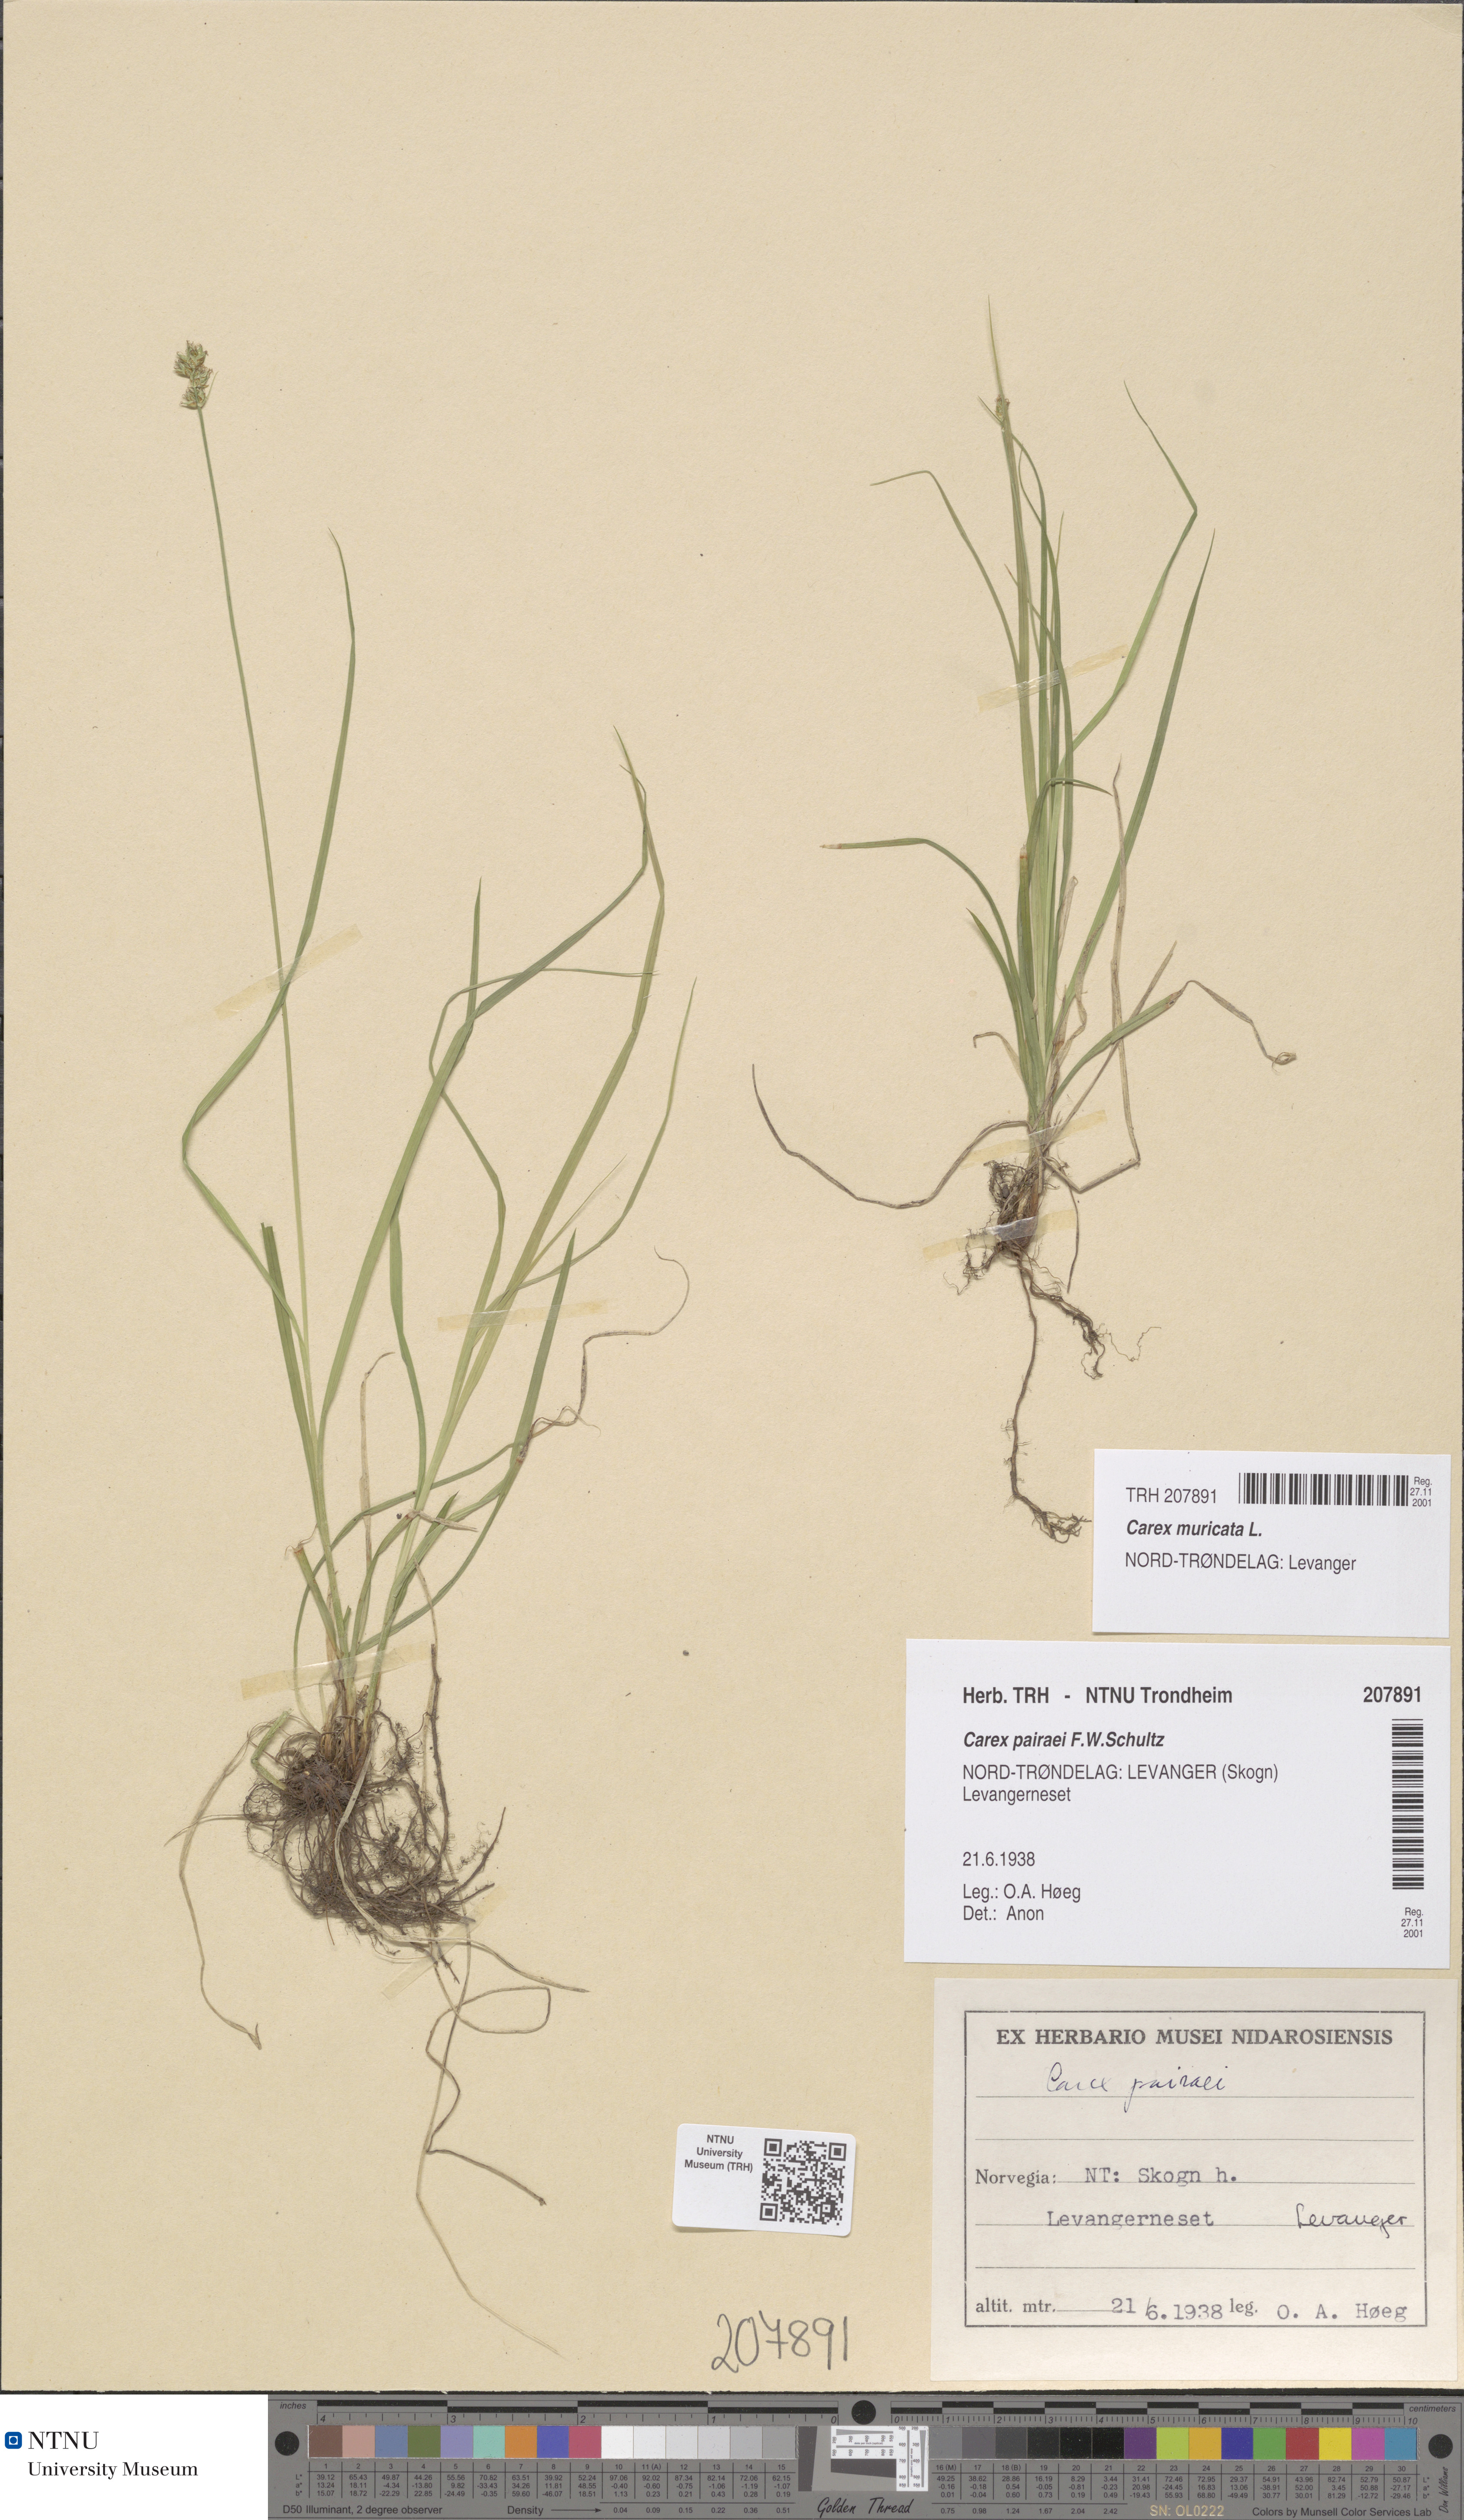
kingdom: Plantae
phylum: Tracheophyta
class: Liliopsida
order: Poales
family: Cyperaceae
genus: Carex
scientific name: Carex muricata
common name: Rough sedge
